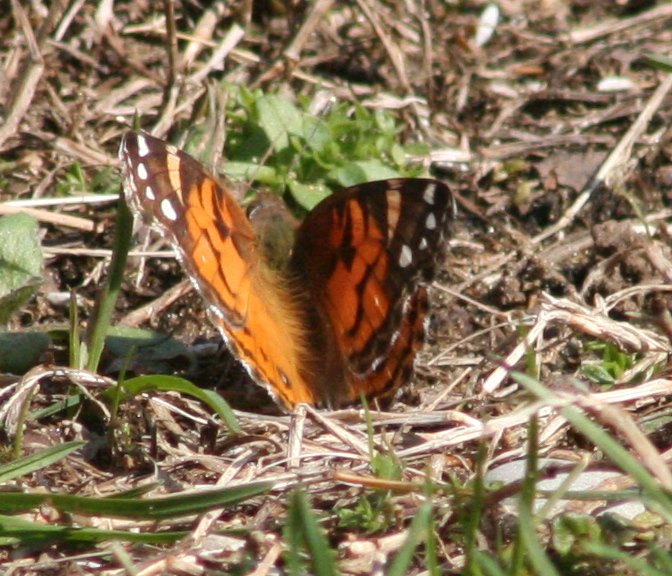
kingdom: Animalia
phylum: Arthropoda
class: Insecta
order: Lepidoptera
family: Nymphalidae
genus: Vanessa
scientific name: Vanessa virginiensis
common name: American Lady
